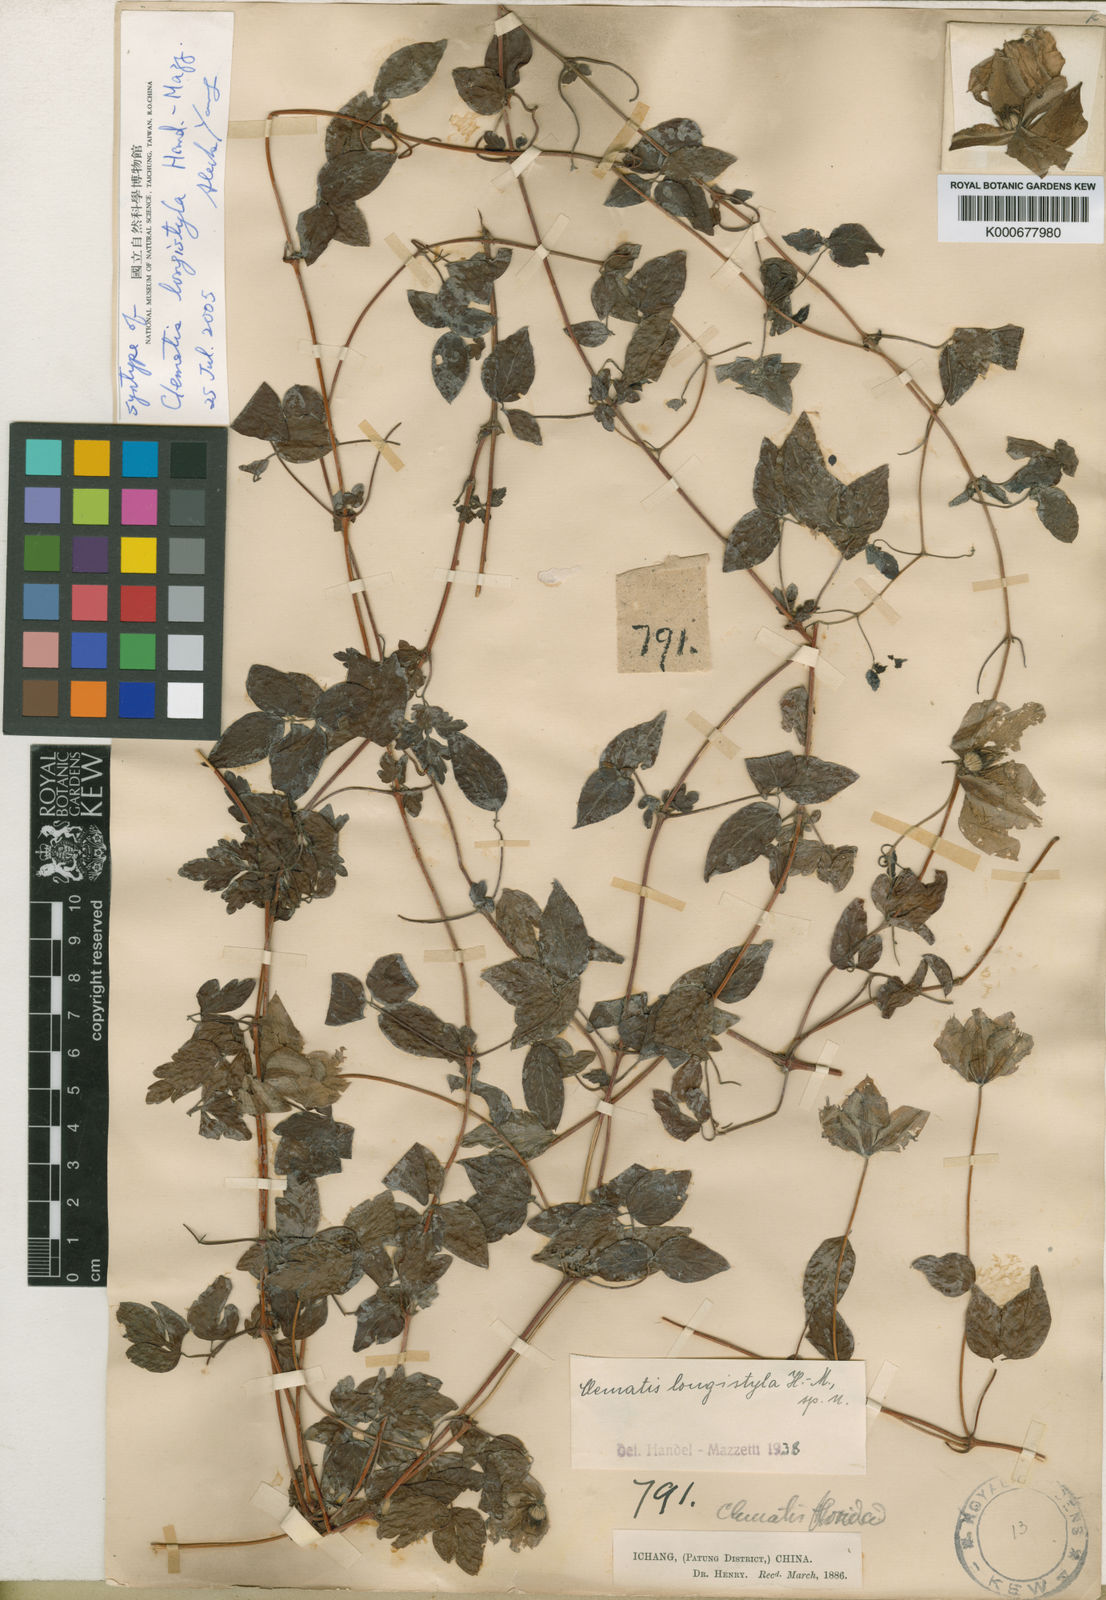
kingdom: Plantae
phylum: Tracheophyta
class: Magnoliopsida
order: Ranunculales
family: Ranunculaceae
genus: Clematis
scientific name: Clematis longistyla
